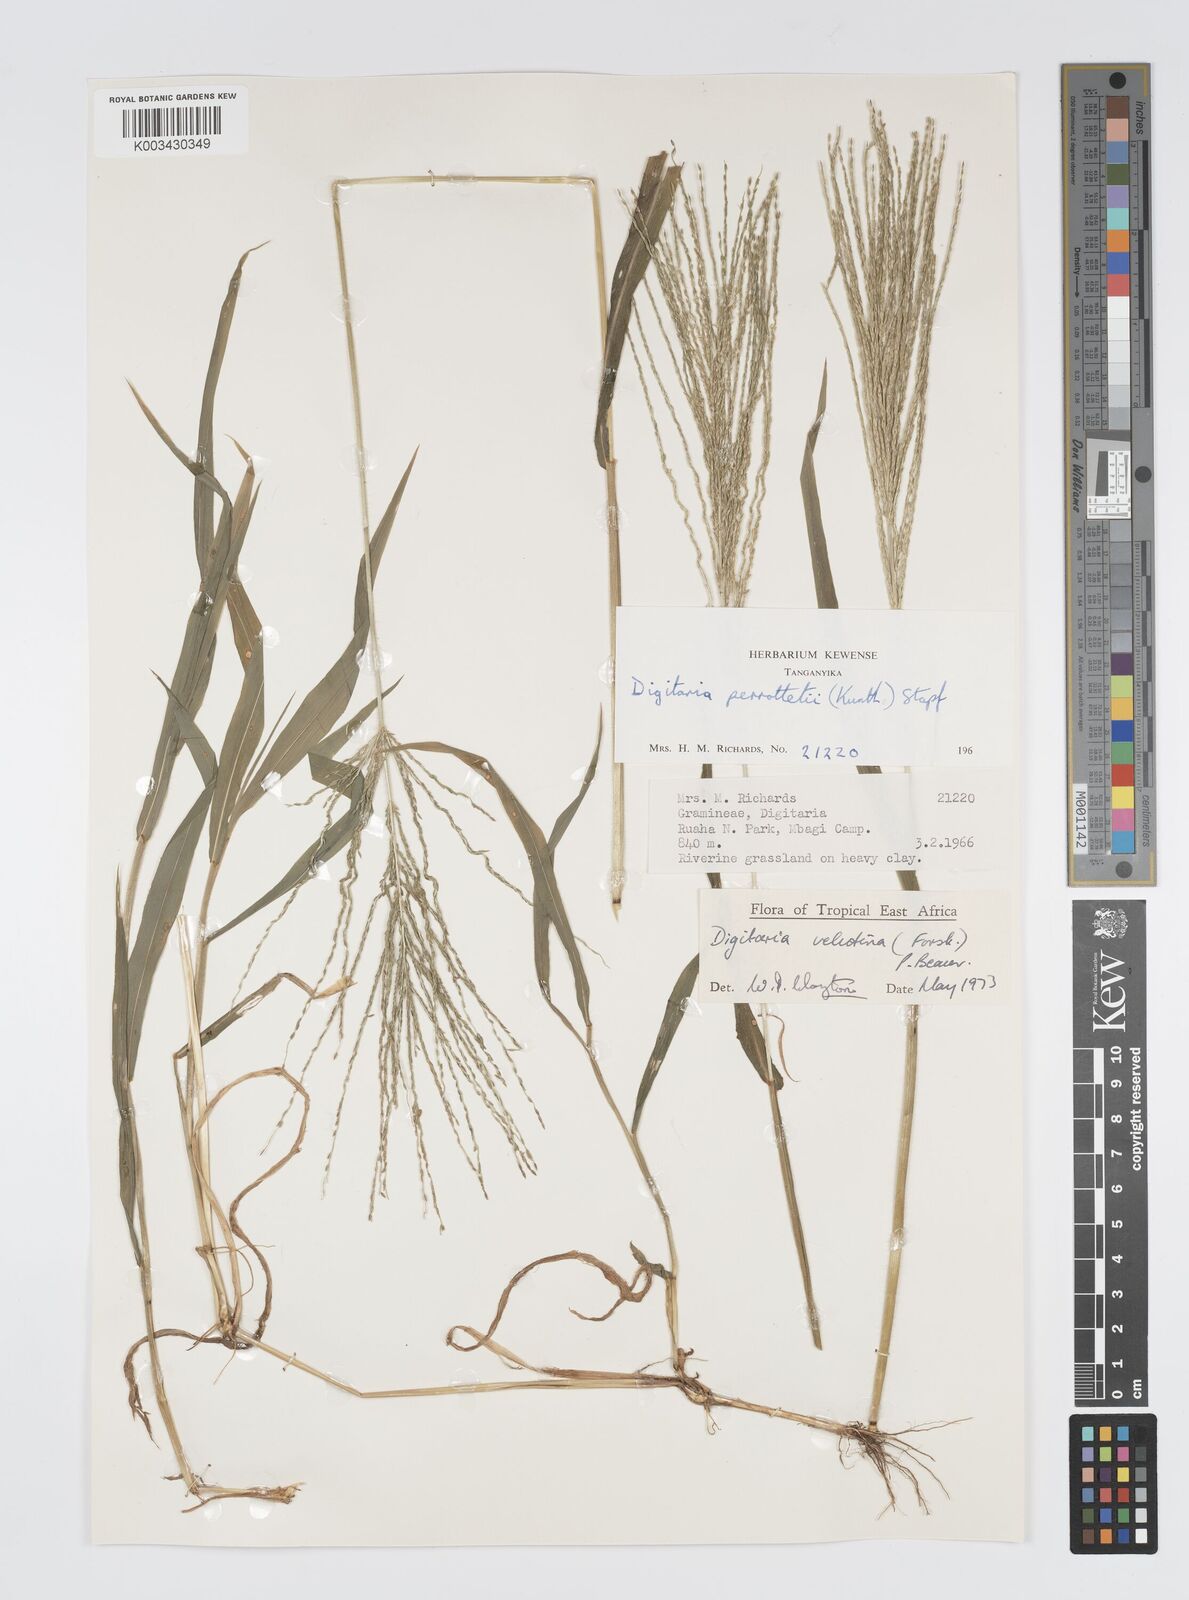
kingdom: Plantae
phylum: Tracheophyta
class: Liliopsida
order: Poales
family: Poaceae
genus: Digitaria
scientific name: Digitaria velutina
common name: Long-plume finger grass
